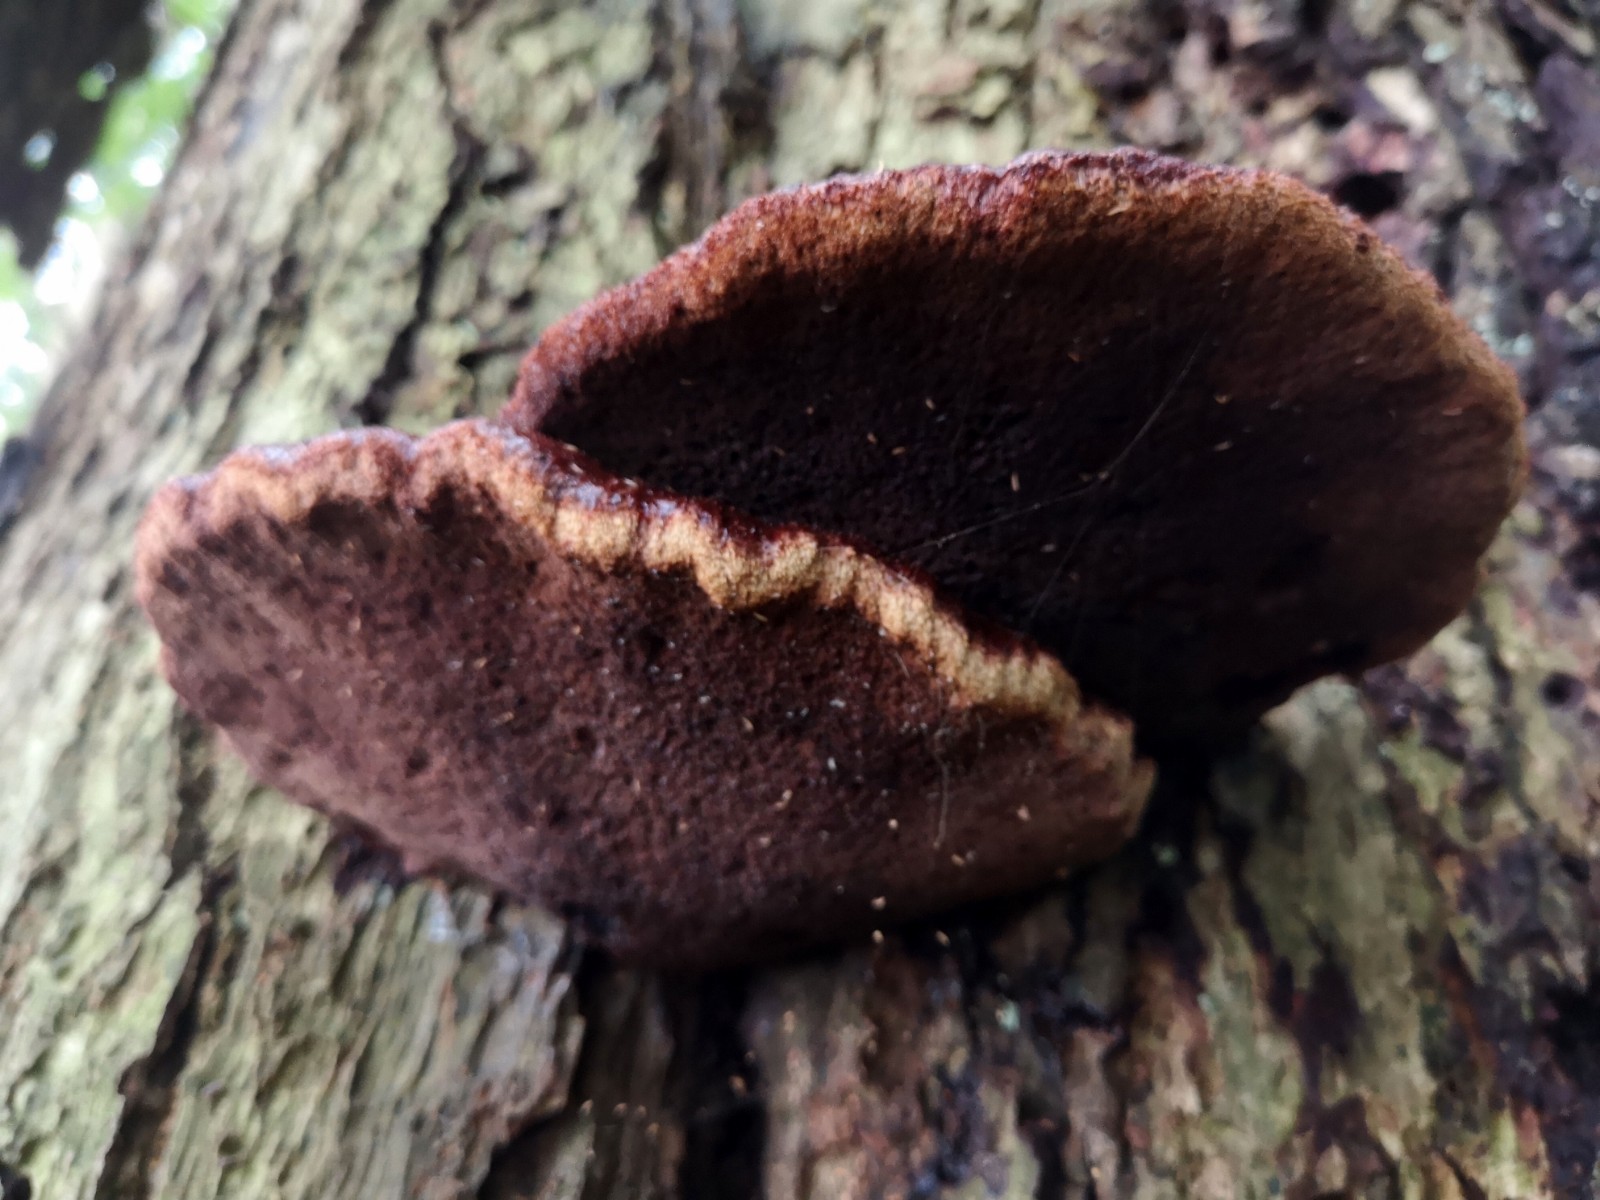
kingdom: Fungi
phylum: Basidiomycota
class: Agaricomycetes
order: Agaricales
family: Fistulinaceae
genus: Fistulina
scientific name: Fistulina hepatica
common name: oksetunge
